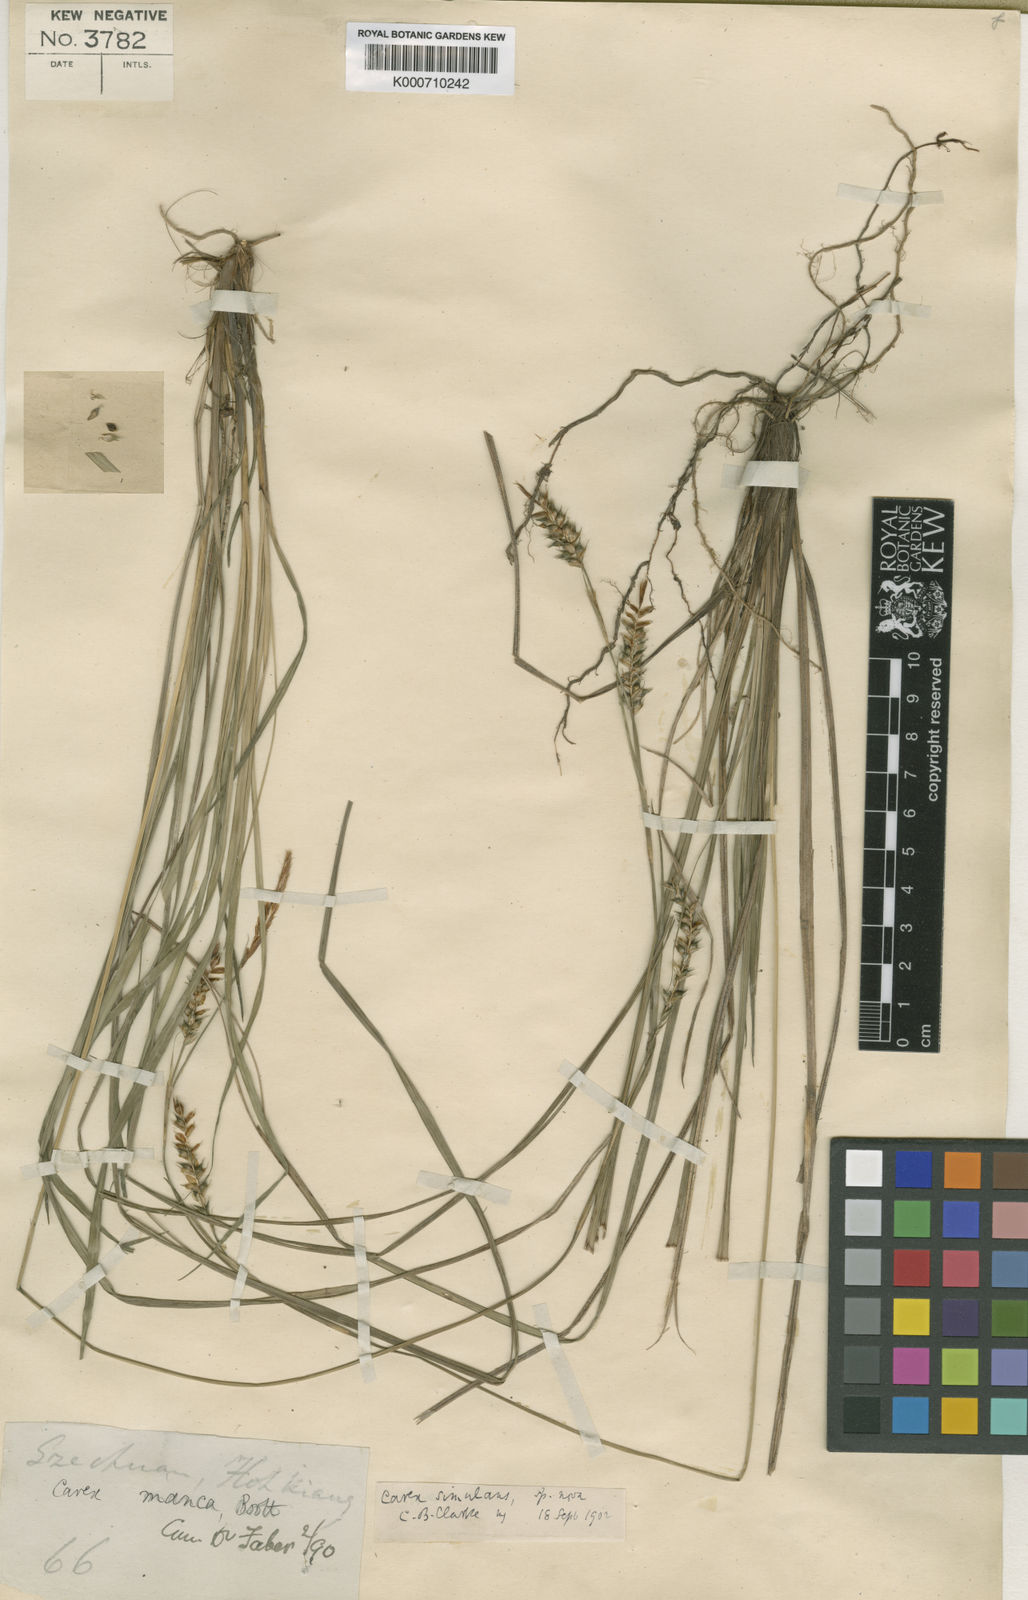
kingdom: Plantae
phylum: Tracheophyta
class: Liliopsida
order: Poales
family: Cyperaceae
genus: Carex
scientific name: Carex simulans
